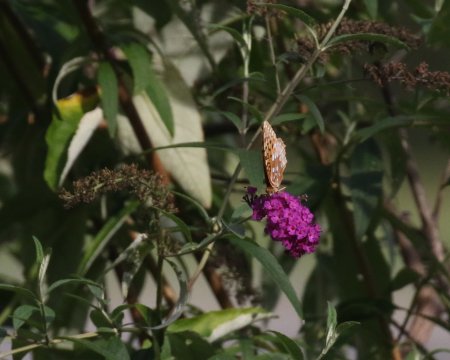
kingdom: Animalia
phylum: Arthropoda
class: Insecta
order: Lepidoptera
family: Nymphalidae
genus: Speyeria
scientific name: Speyeria cybele
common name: Great Spangled Fritillary
